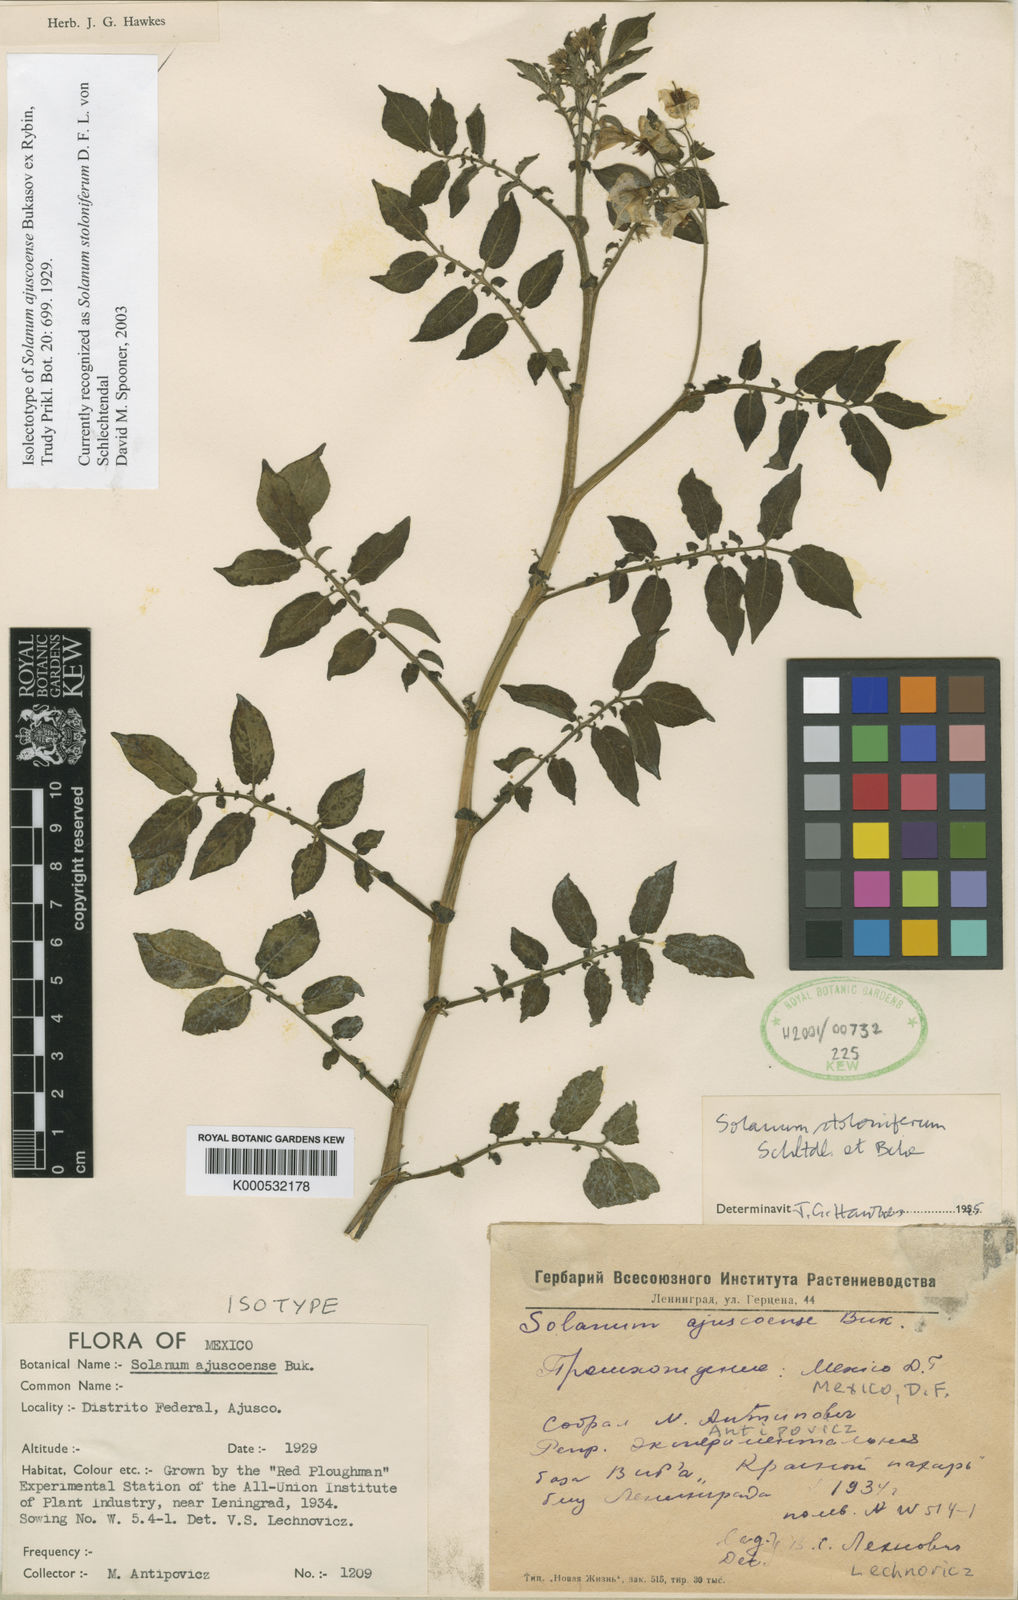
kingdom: Plantae
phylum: Tracheophyta
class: Magnoliopsida
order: Solanales
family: Solanaceae
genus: Solanum
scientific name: Solanum stoloniferum
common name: Fendler's nighshade
